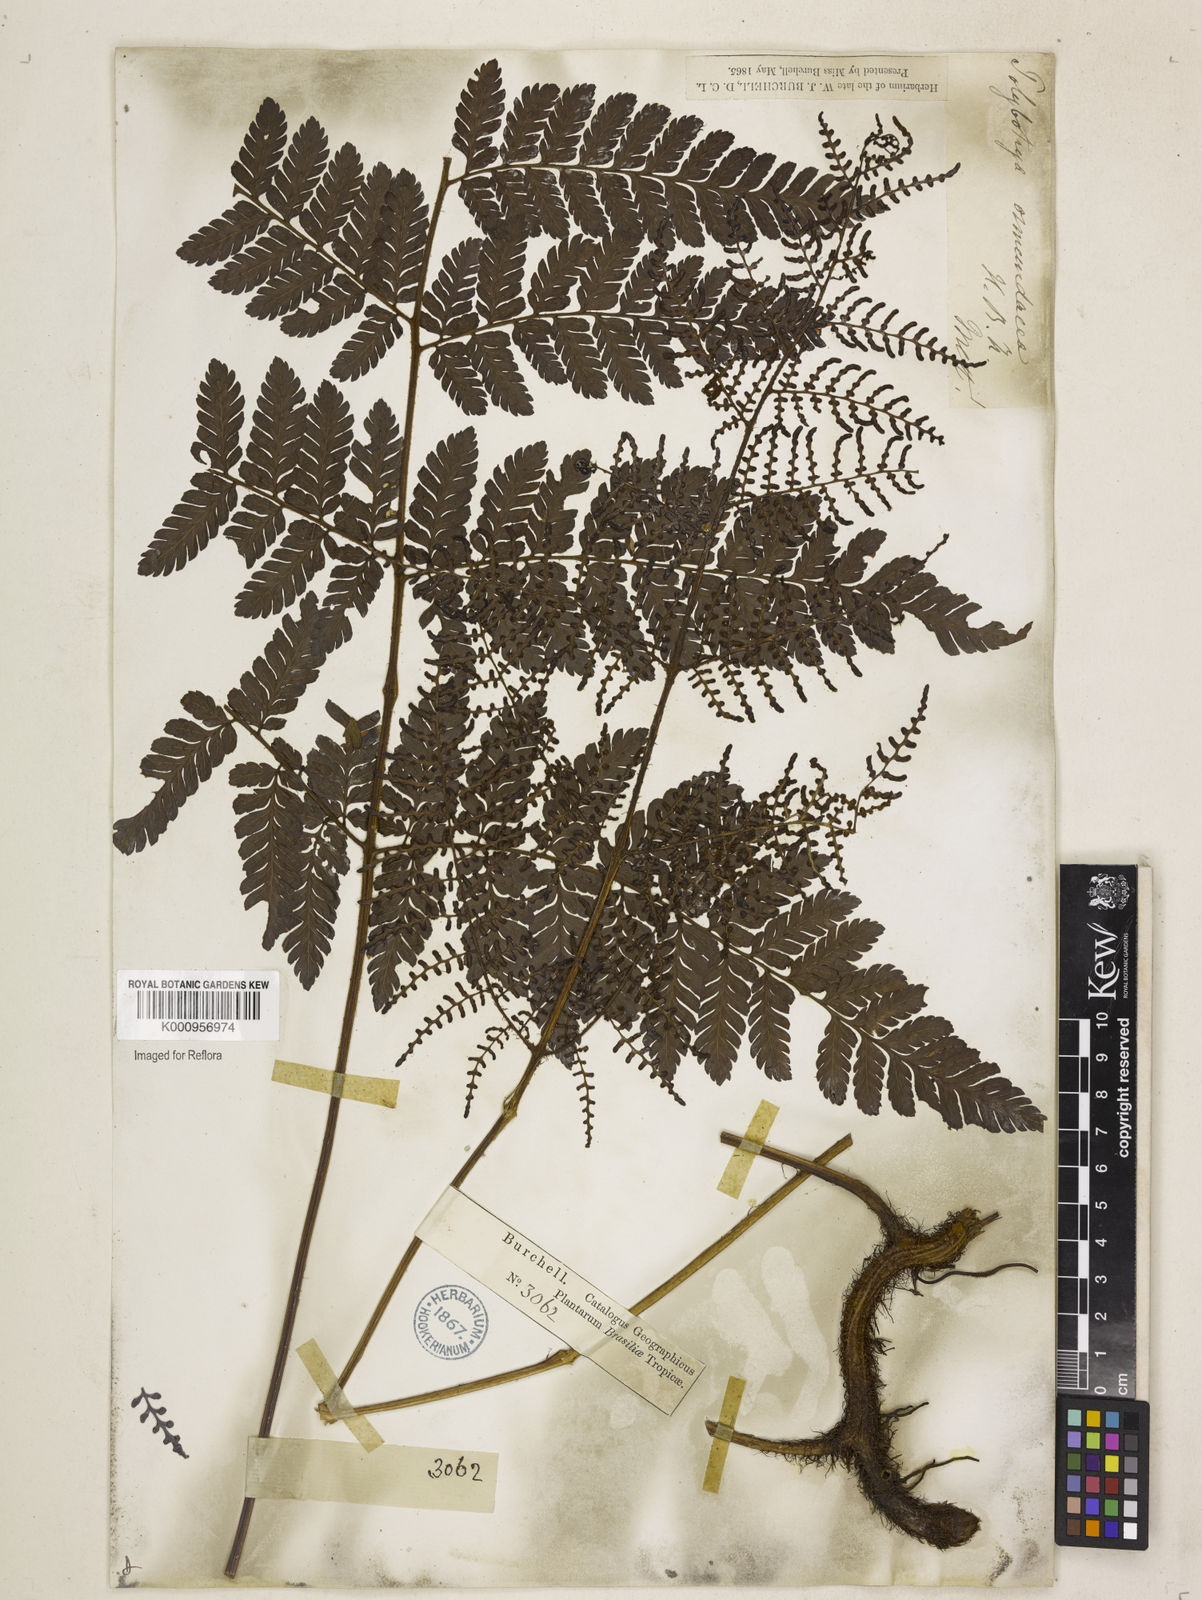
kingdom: Plantae
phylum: Tracheophyta
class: Polypodiopsida
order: Polypodiales
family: Dryopteridaceae
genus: Polybotrya
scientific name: Polybotrya osmundacea
